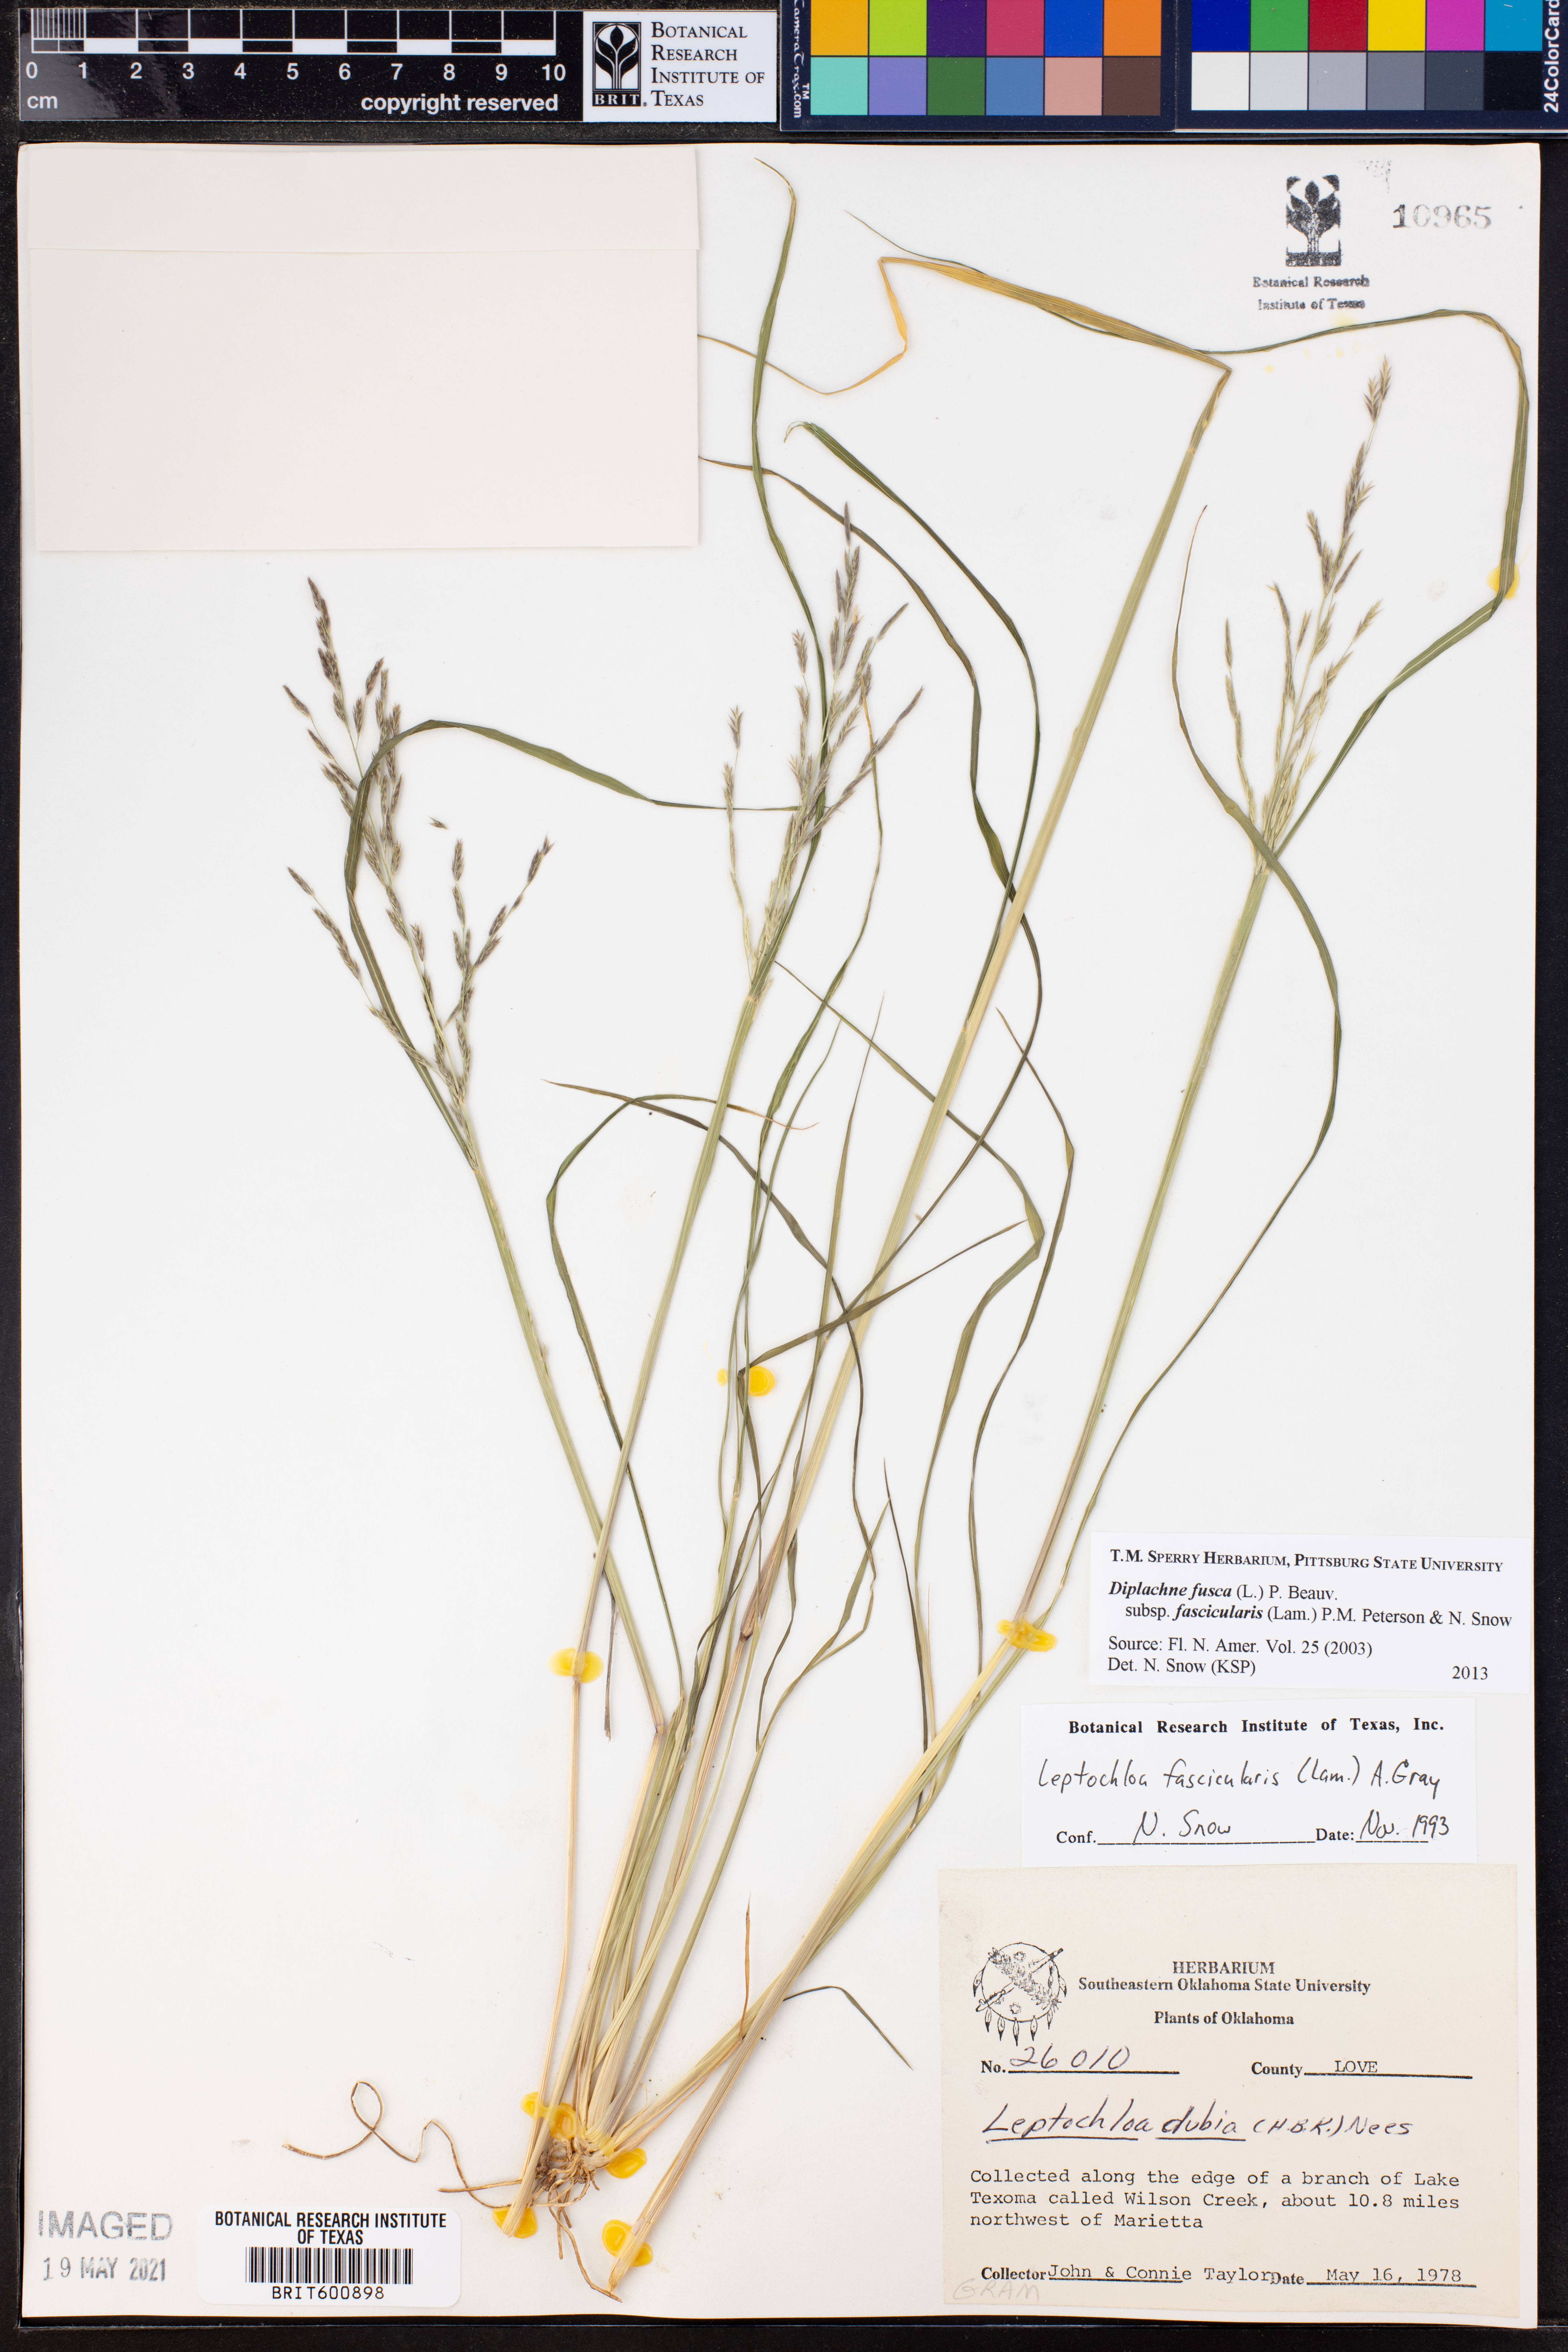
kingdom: Plantae
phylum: Tracheophyta
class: Liliopsida
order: Poales
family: Poaceae
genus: Diplachne
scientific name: Diplachne fusca
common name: Brown beetle grass
